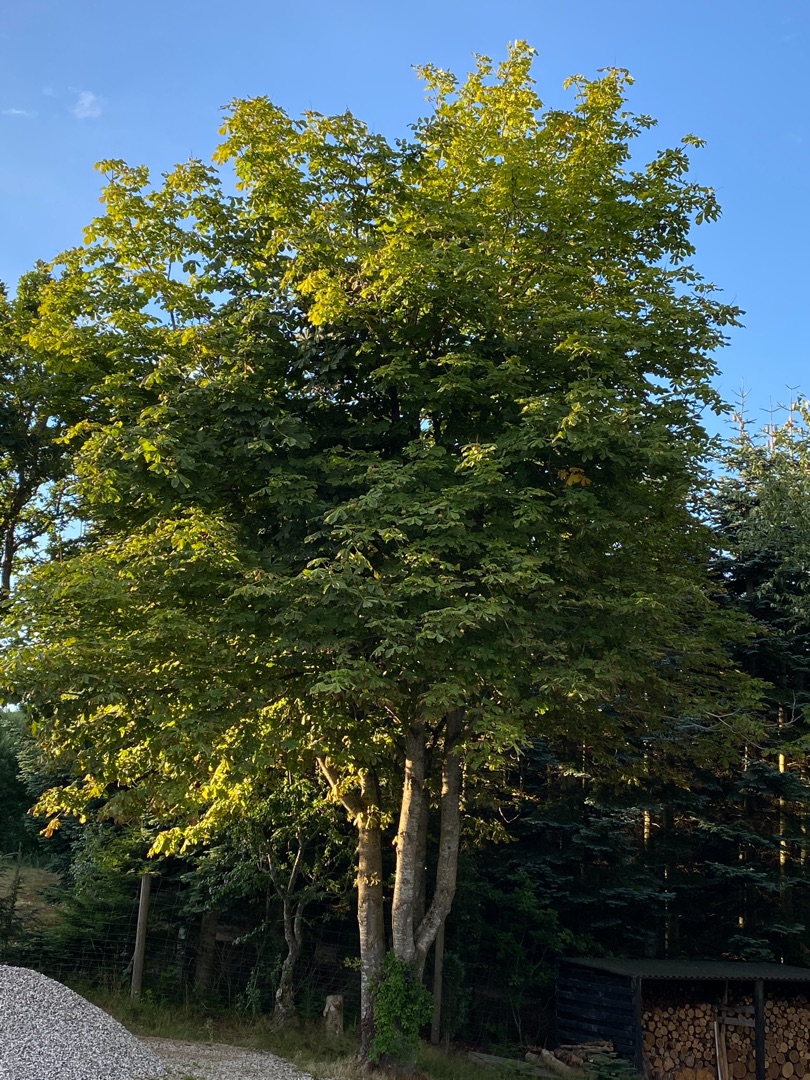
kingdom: Plantae
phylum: Tracheophyta
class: Magnoliopsida
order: Sapindales
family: Sapindaceae
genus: Aesculus
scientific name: Aesculus hippocastanum
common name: Hestekastanie
